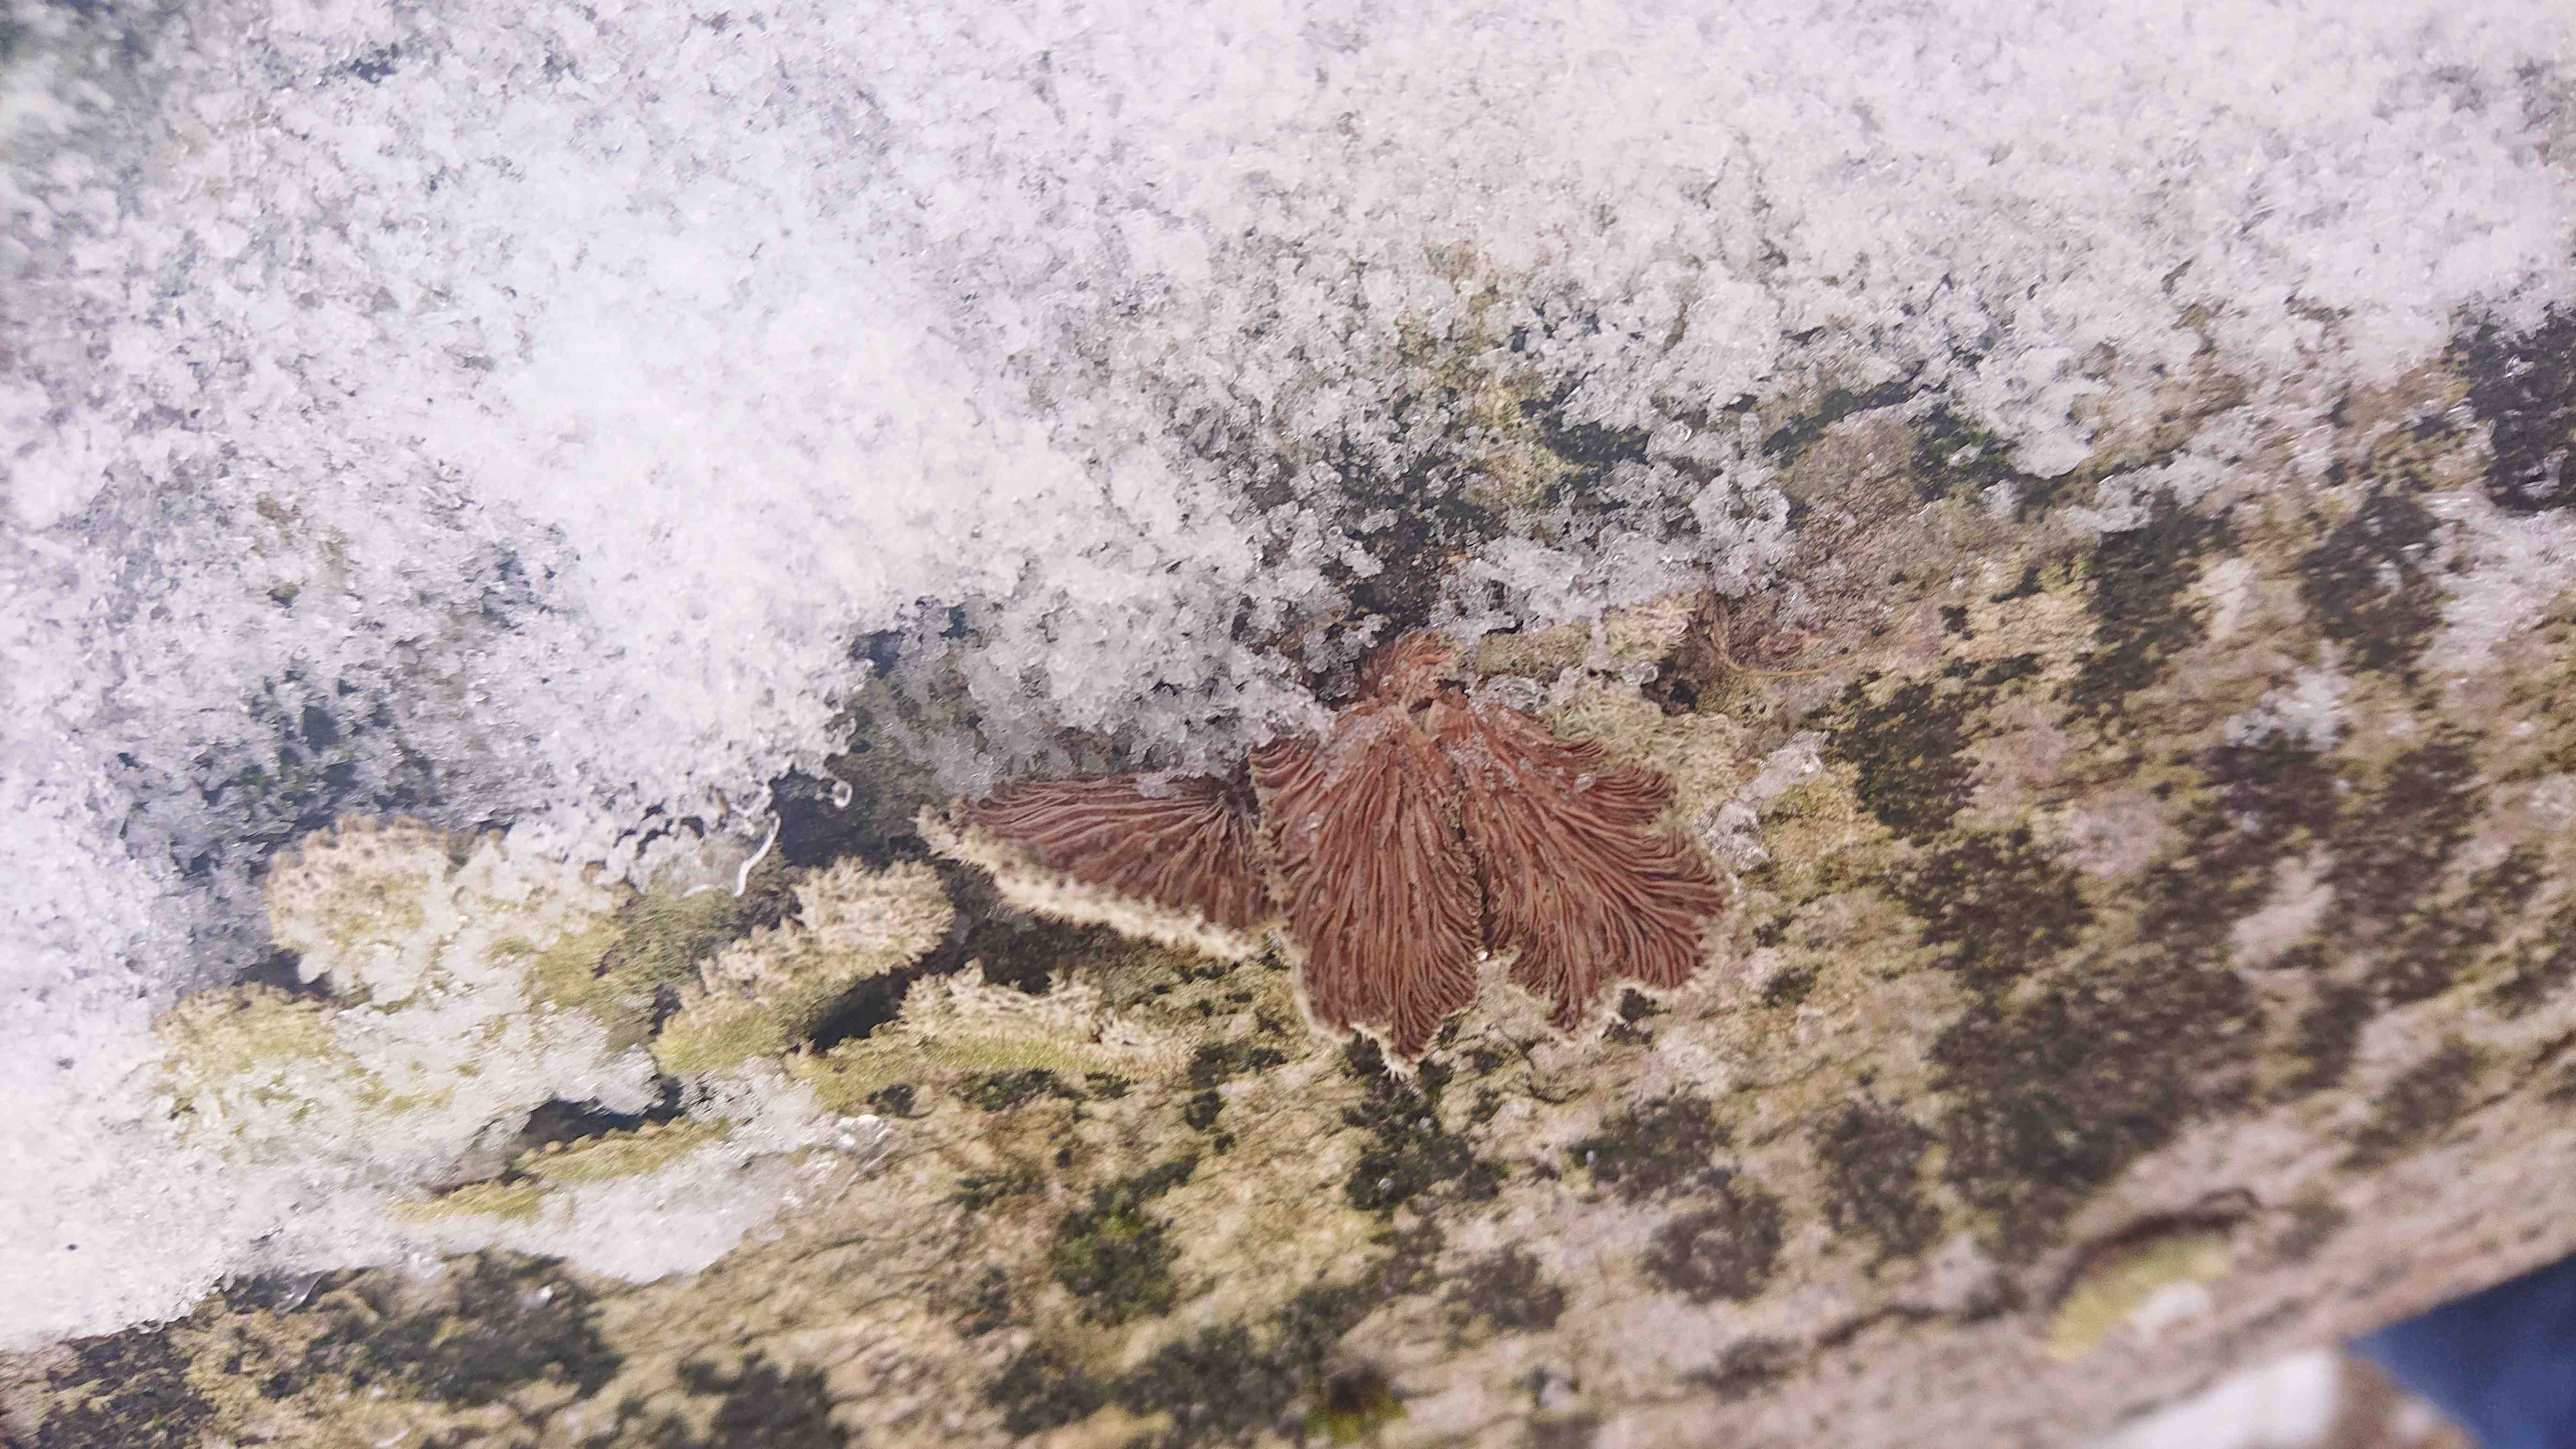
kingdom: Fungi
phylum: Basidiomycota
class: Agaricomycetes
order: Agaricales
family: Schizophyllaceae
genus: Schizophyllum
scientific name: Schizophyllum commune
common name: kløvblad
